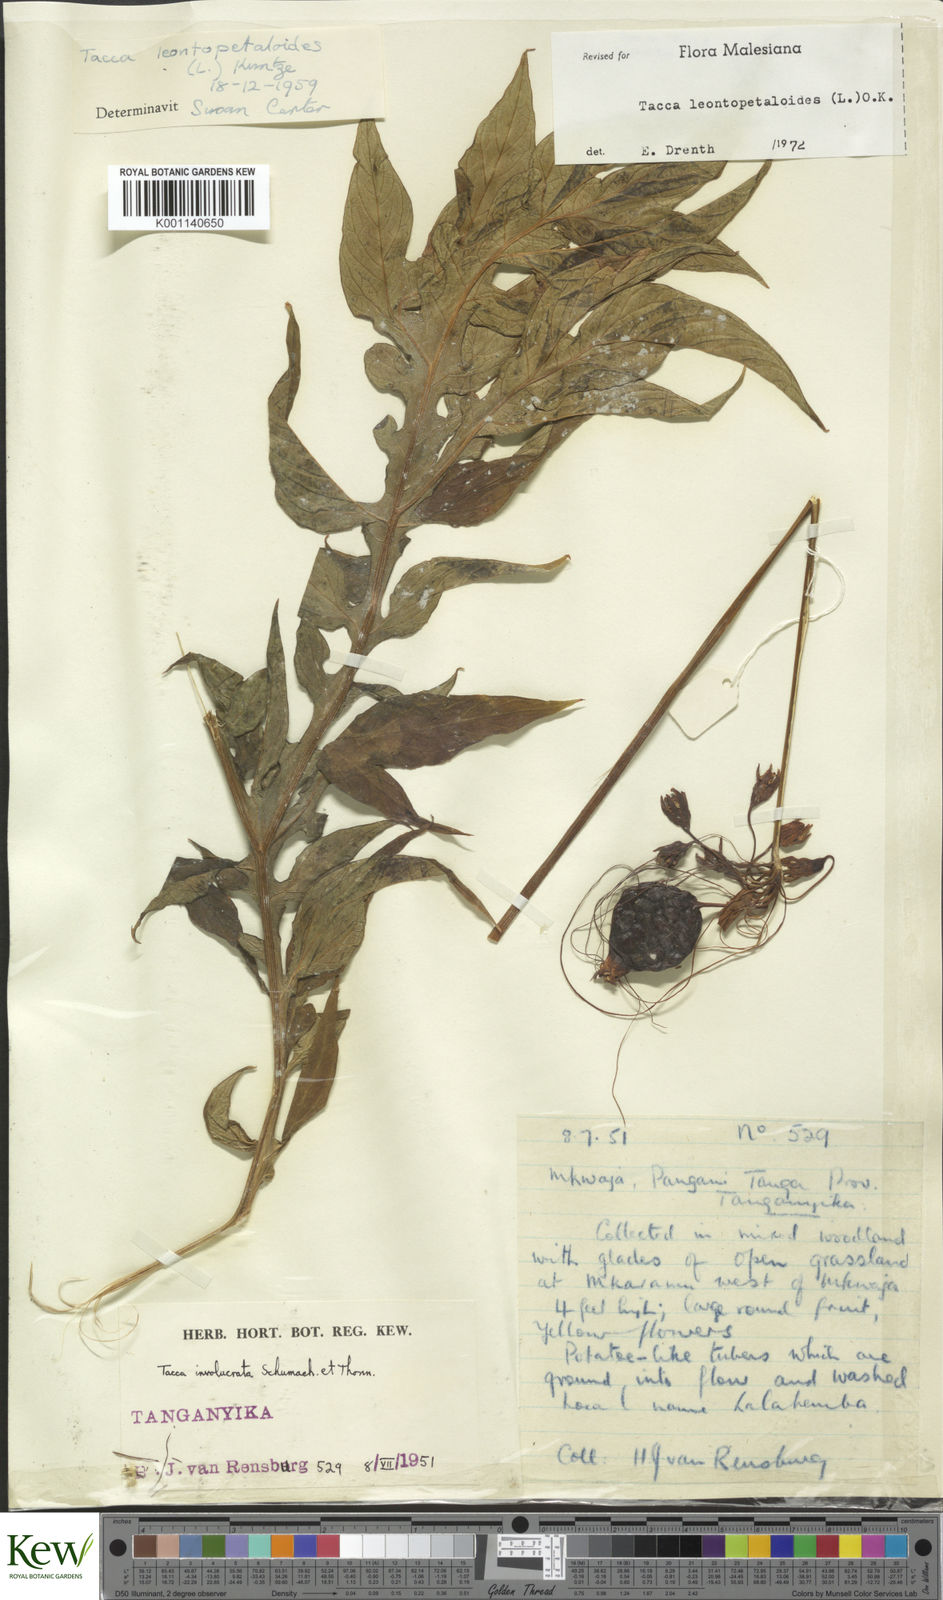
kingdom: Plantae
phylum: Tracheophyta
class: Liliopsida
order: Dioscoreales
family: Dioscoreaceae
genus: Tacca
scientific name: Tacca leontopetaloides
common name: Arrowroot
